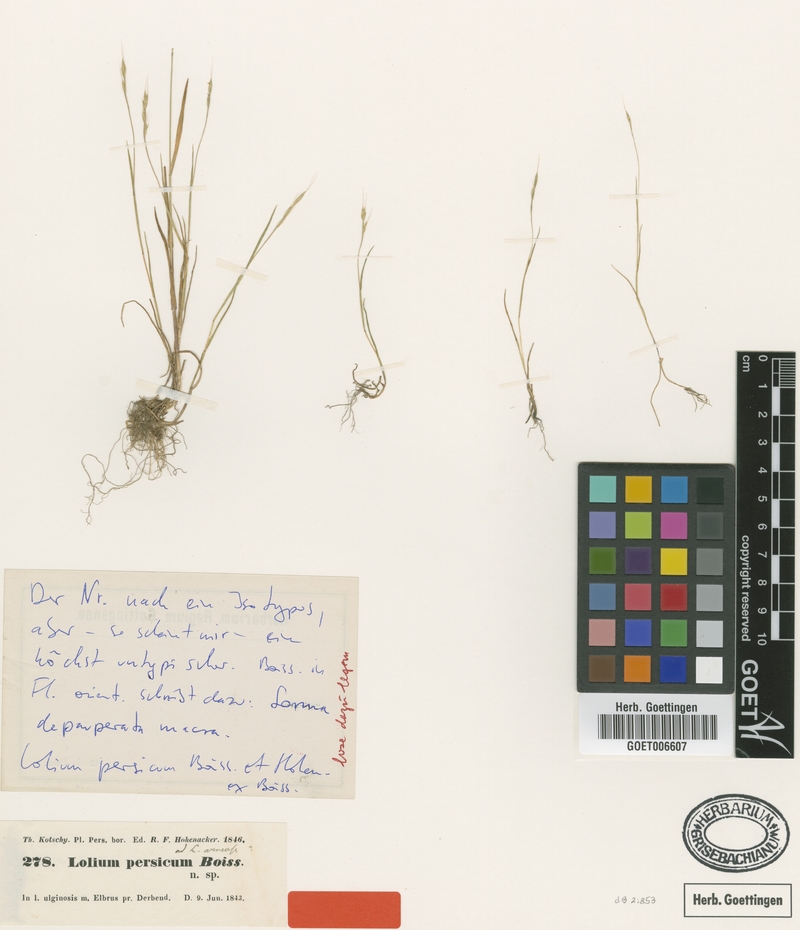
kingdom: Plantae
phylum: Tracheophyta
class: Liliopsida
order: Poales
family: Poaceae
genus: Lolium
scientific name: Lolium persicum
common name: Persian ryegrass
